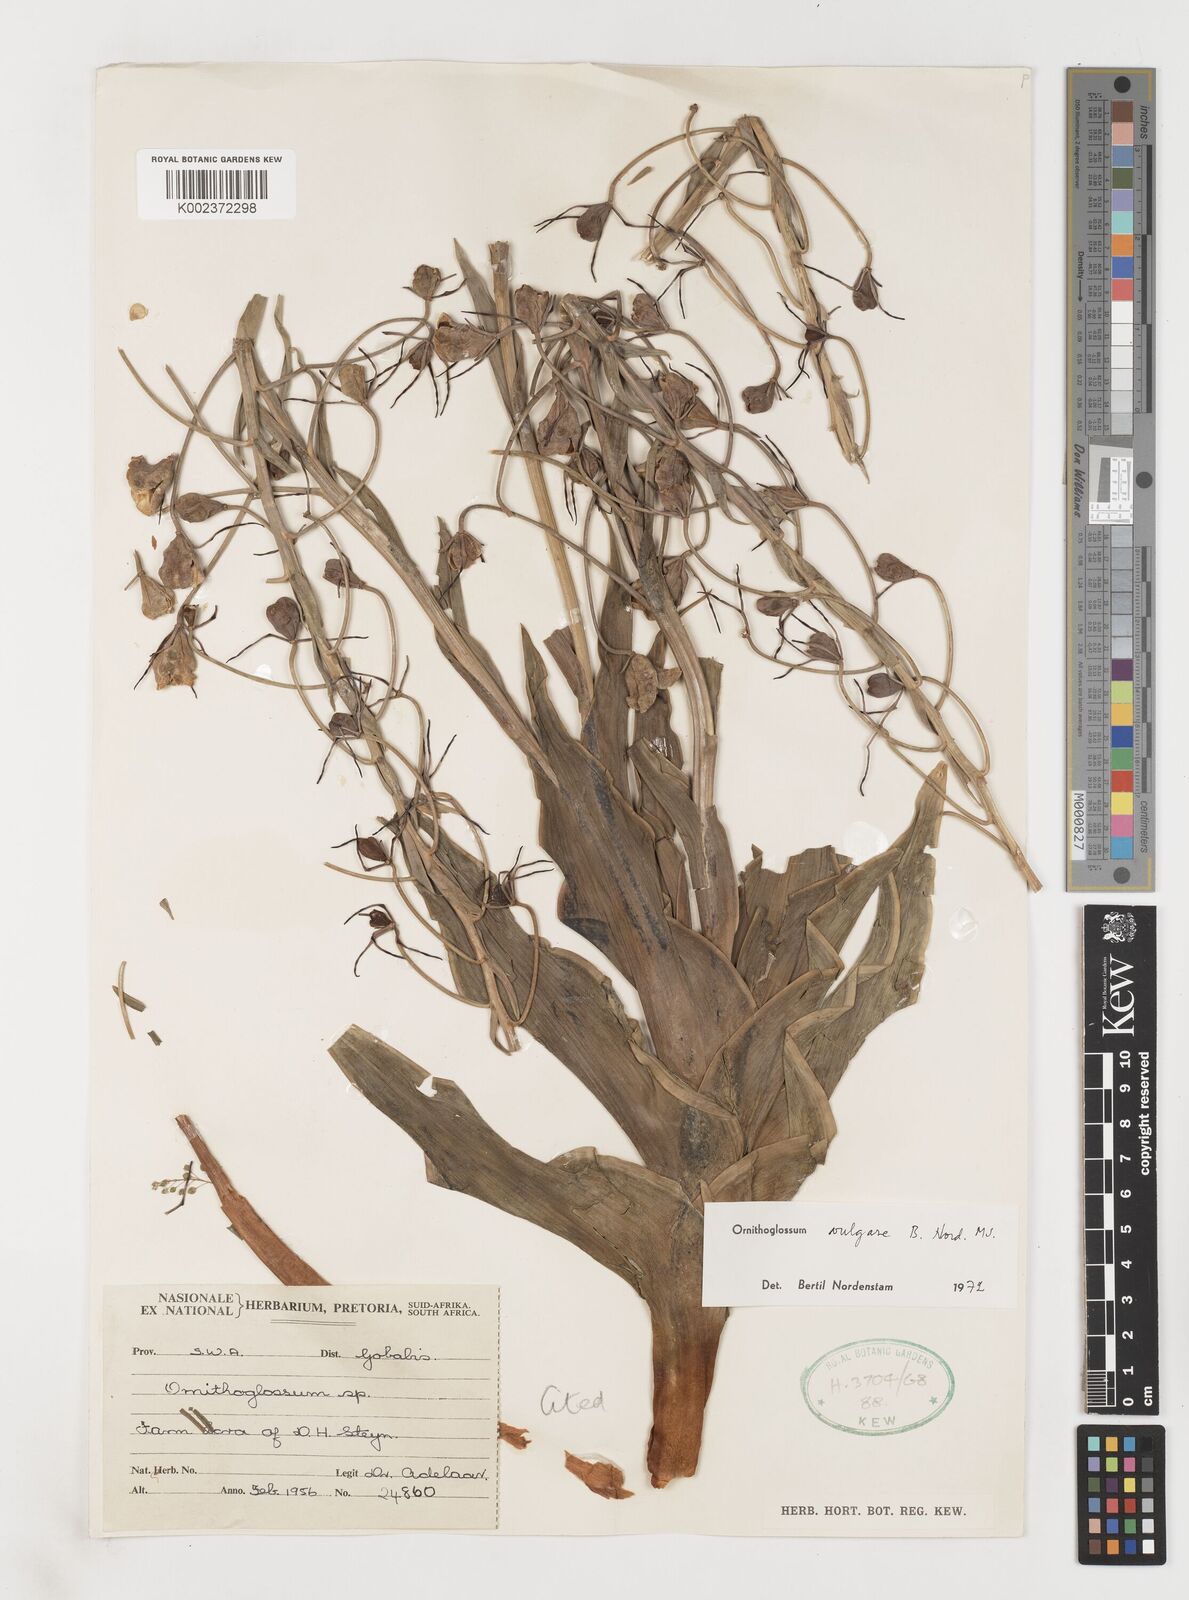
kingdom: Plantae
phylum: Tracheophyta
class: Liliopsida
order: Liliales
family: Colchicaceae
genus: Ornithoglossum
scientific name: Ornithoglossum vulgare
